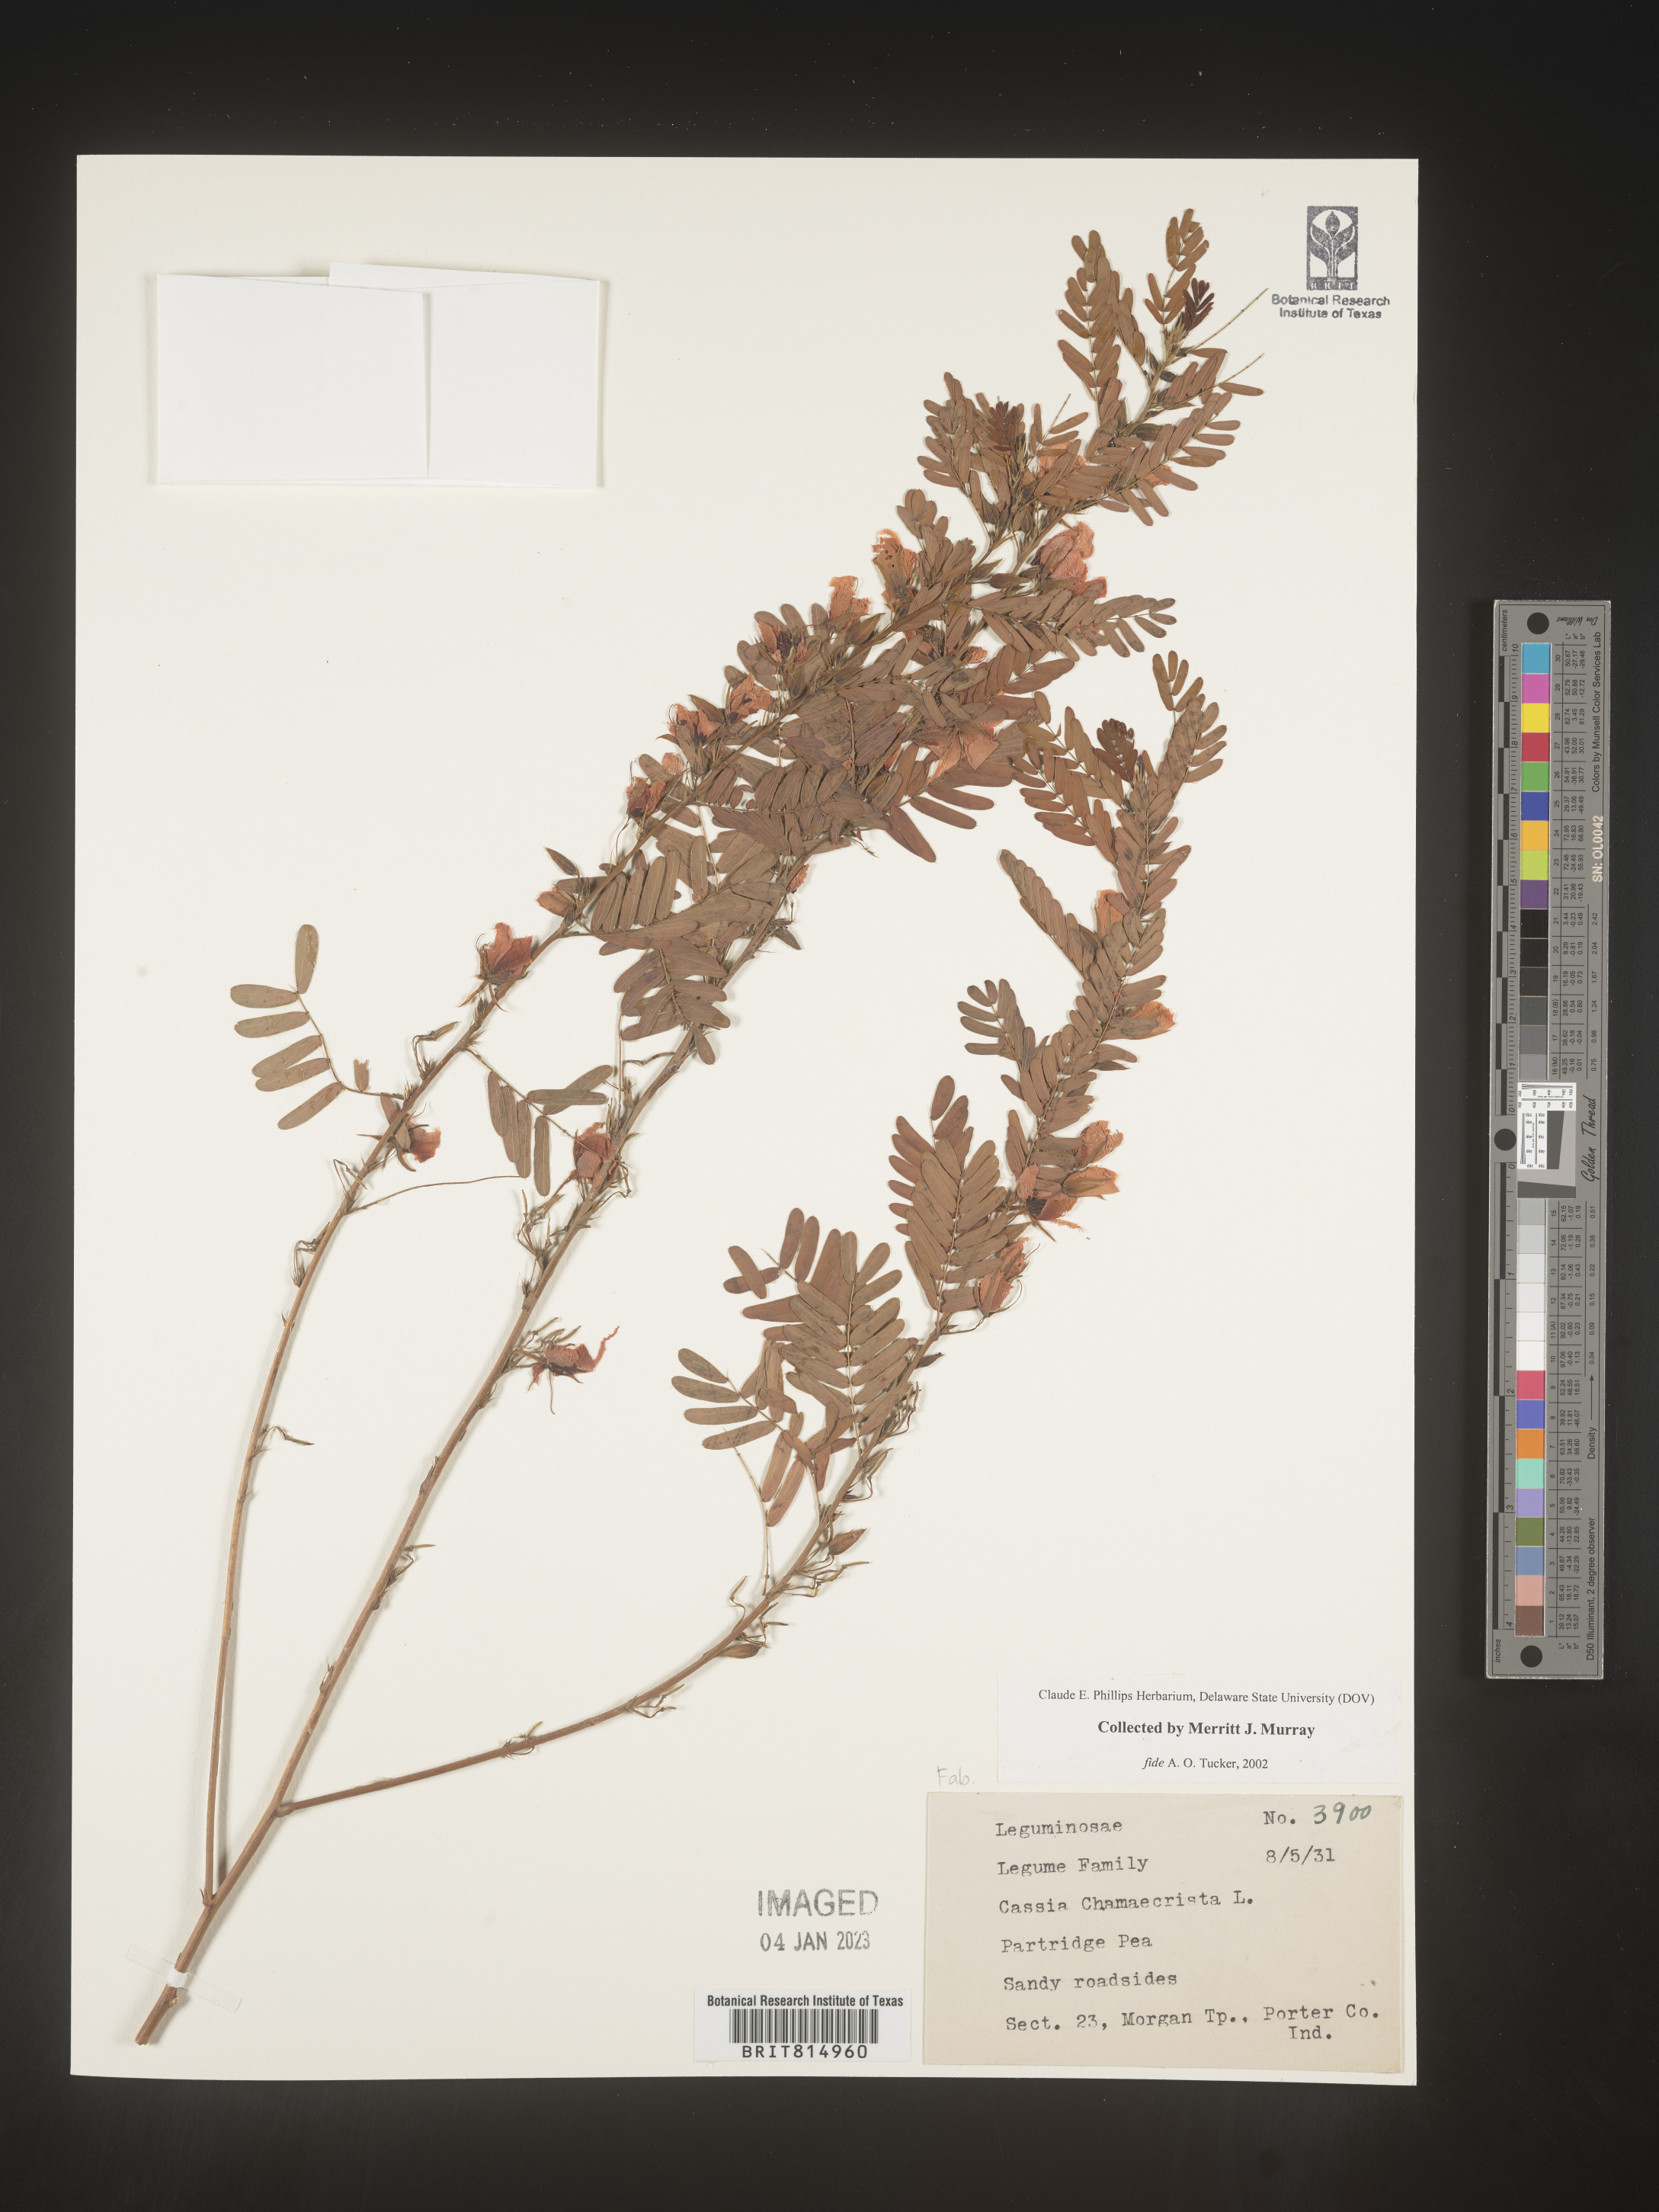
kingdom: Plantae
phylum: Tracheophyta
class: Magnoliopsida
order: Fabales
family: Fabaceae
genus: Cassia
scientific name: Cassia
